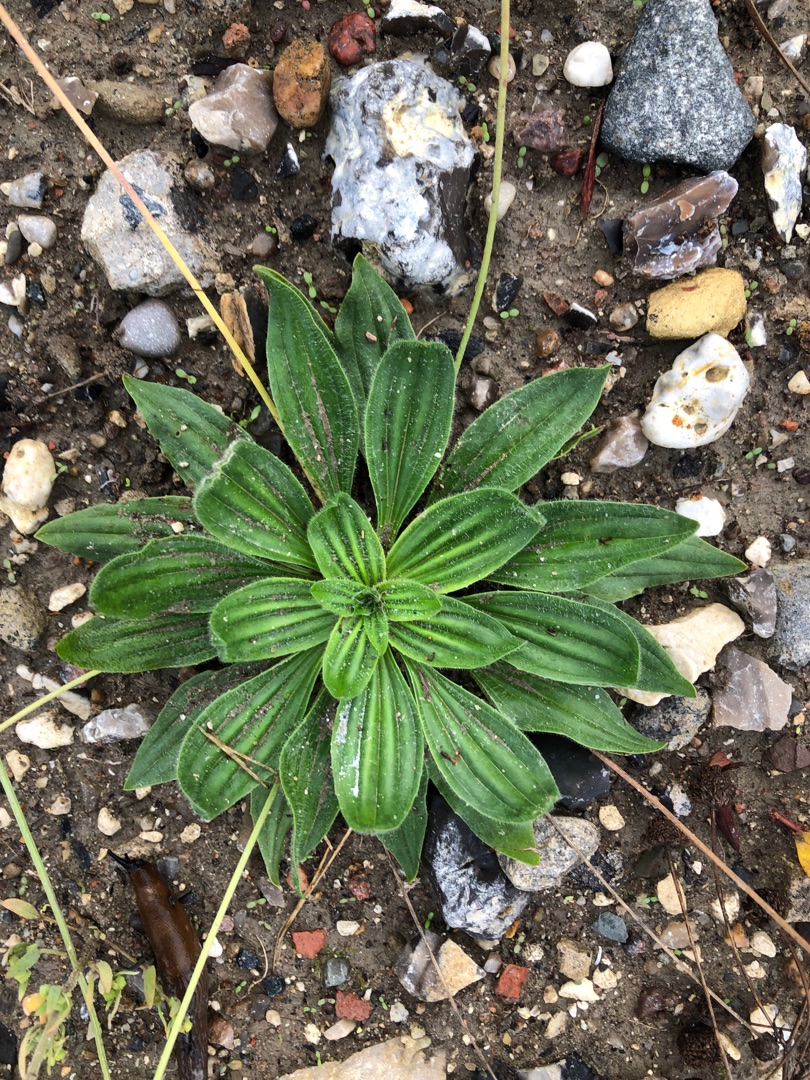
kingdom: Plantae
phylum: Tracheophyta
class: Magnoliopsida
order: Lamiales
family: Plantaginaceae
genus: Plantago
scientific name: Plantago lanceolata
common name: Lancet-vejbred
